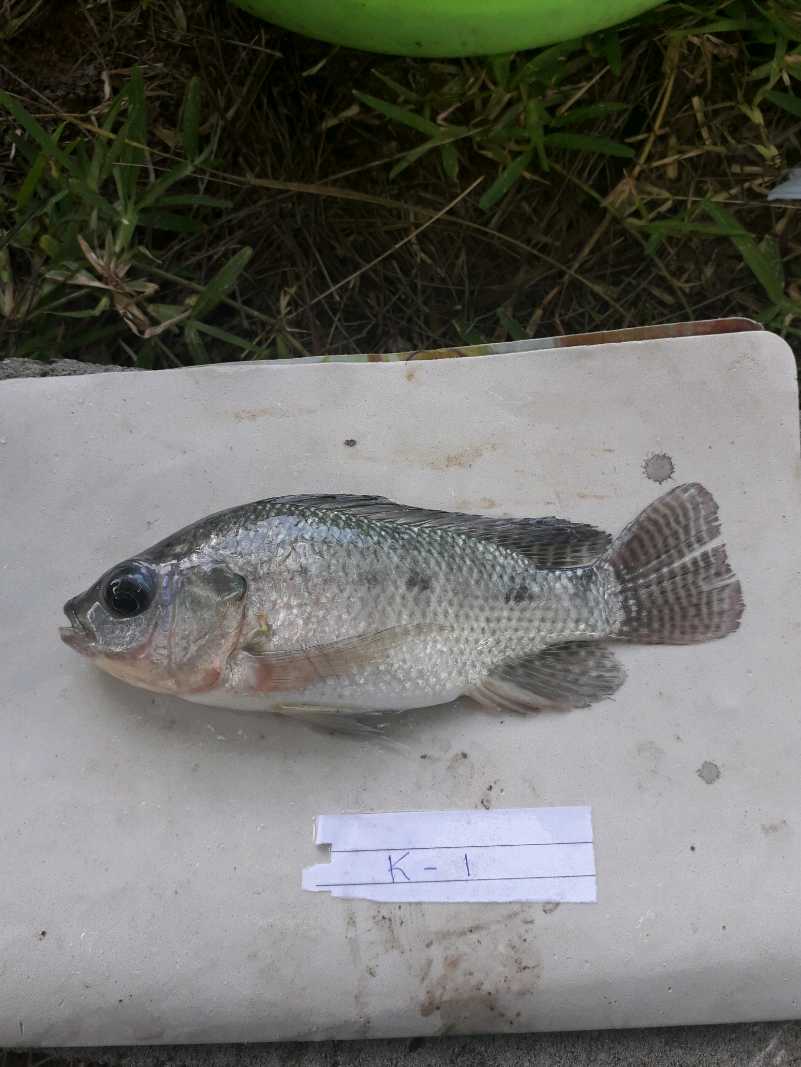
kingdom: Animalia
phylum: Chordata
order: Perciformes
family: Cichlidae
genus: Oreochromis
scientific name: Oreochromis niloticus
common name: Nile tilapia
